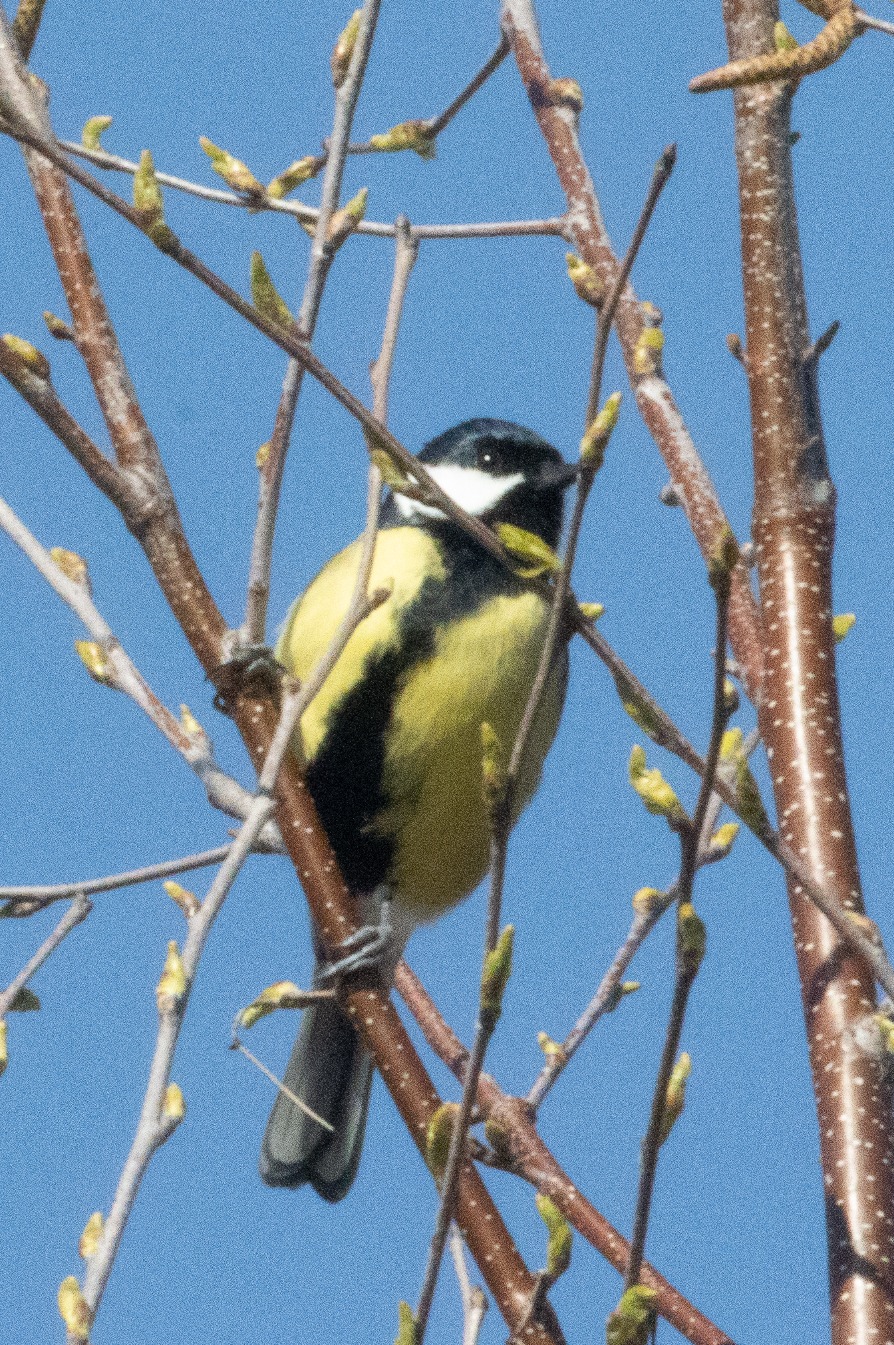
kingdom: Animalia
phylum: Chordata
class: Aves
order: Passeriformes
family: Paridae
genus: Parus
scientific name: Parus major
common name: Musvit
